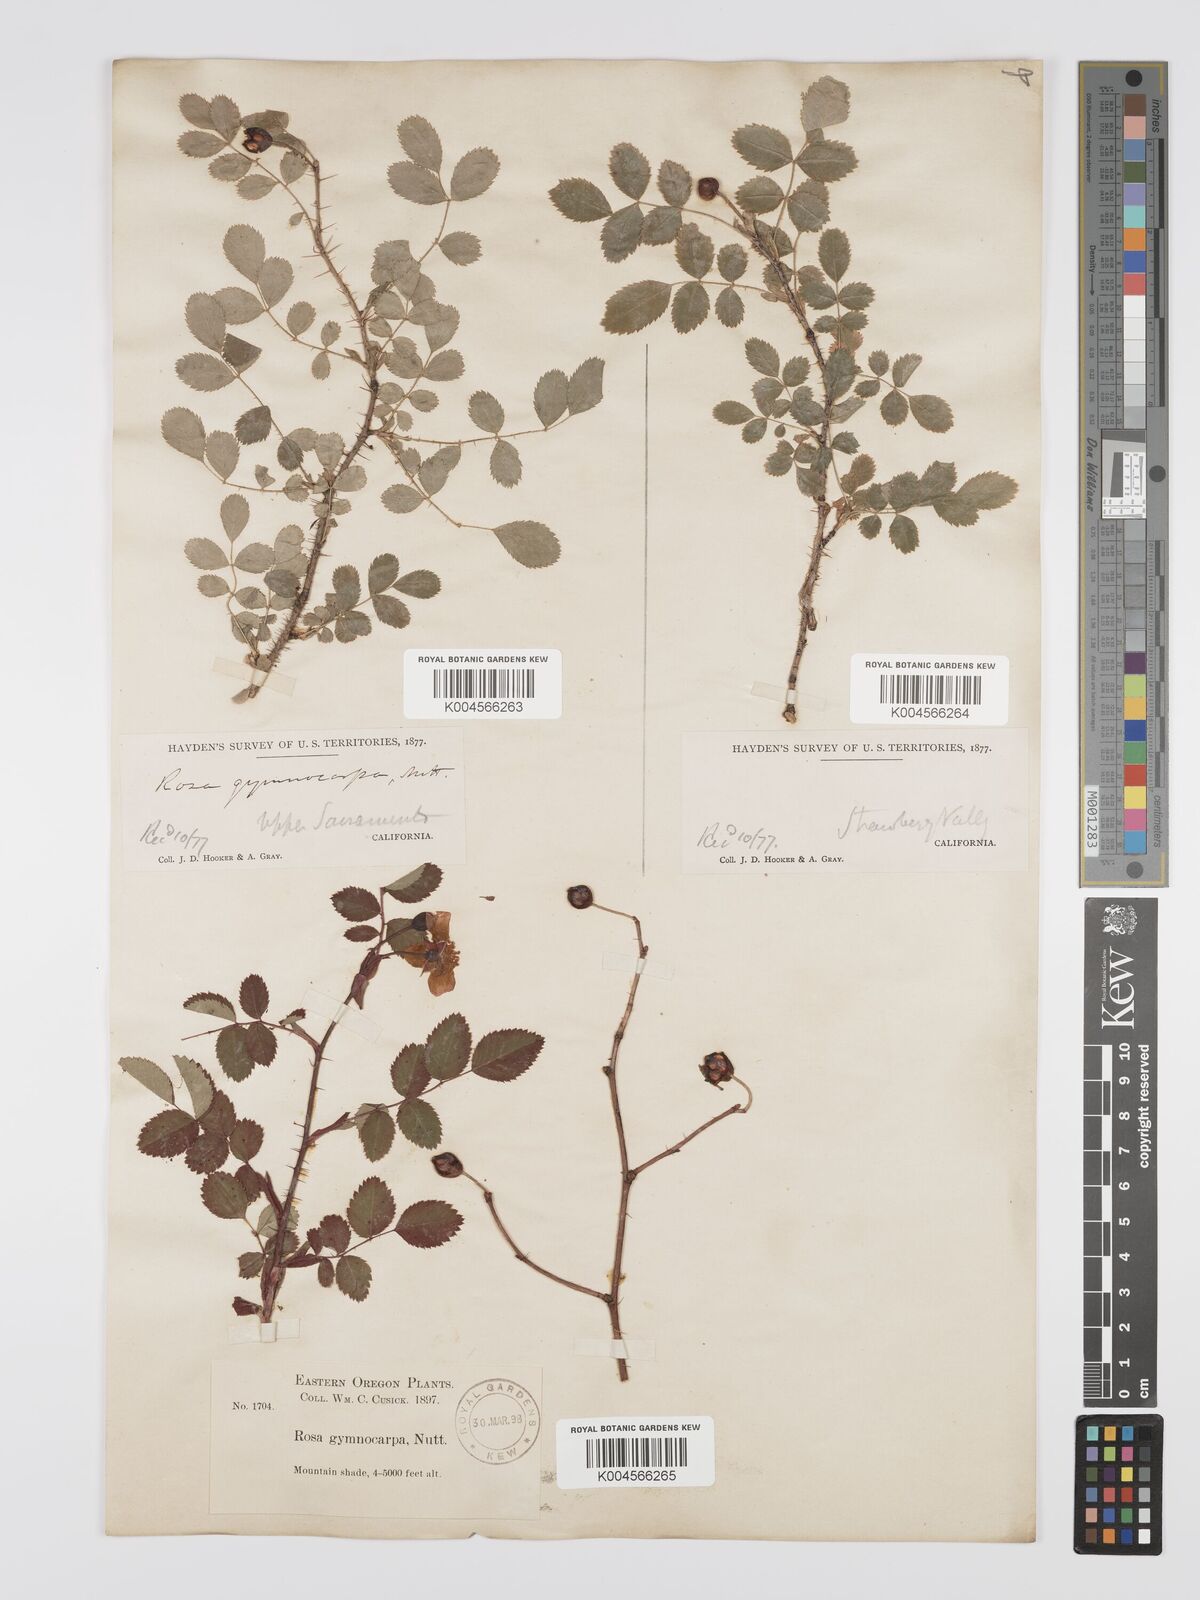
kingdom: Plantae
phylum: Tracheophyta
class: Magnoliopsida
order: Rosales
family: Rosaceae
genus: Rosa
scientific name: Rosa gymnocarpa
